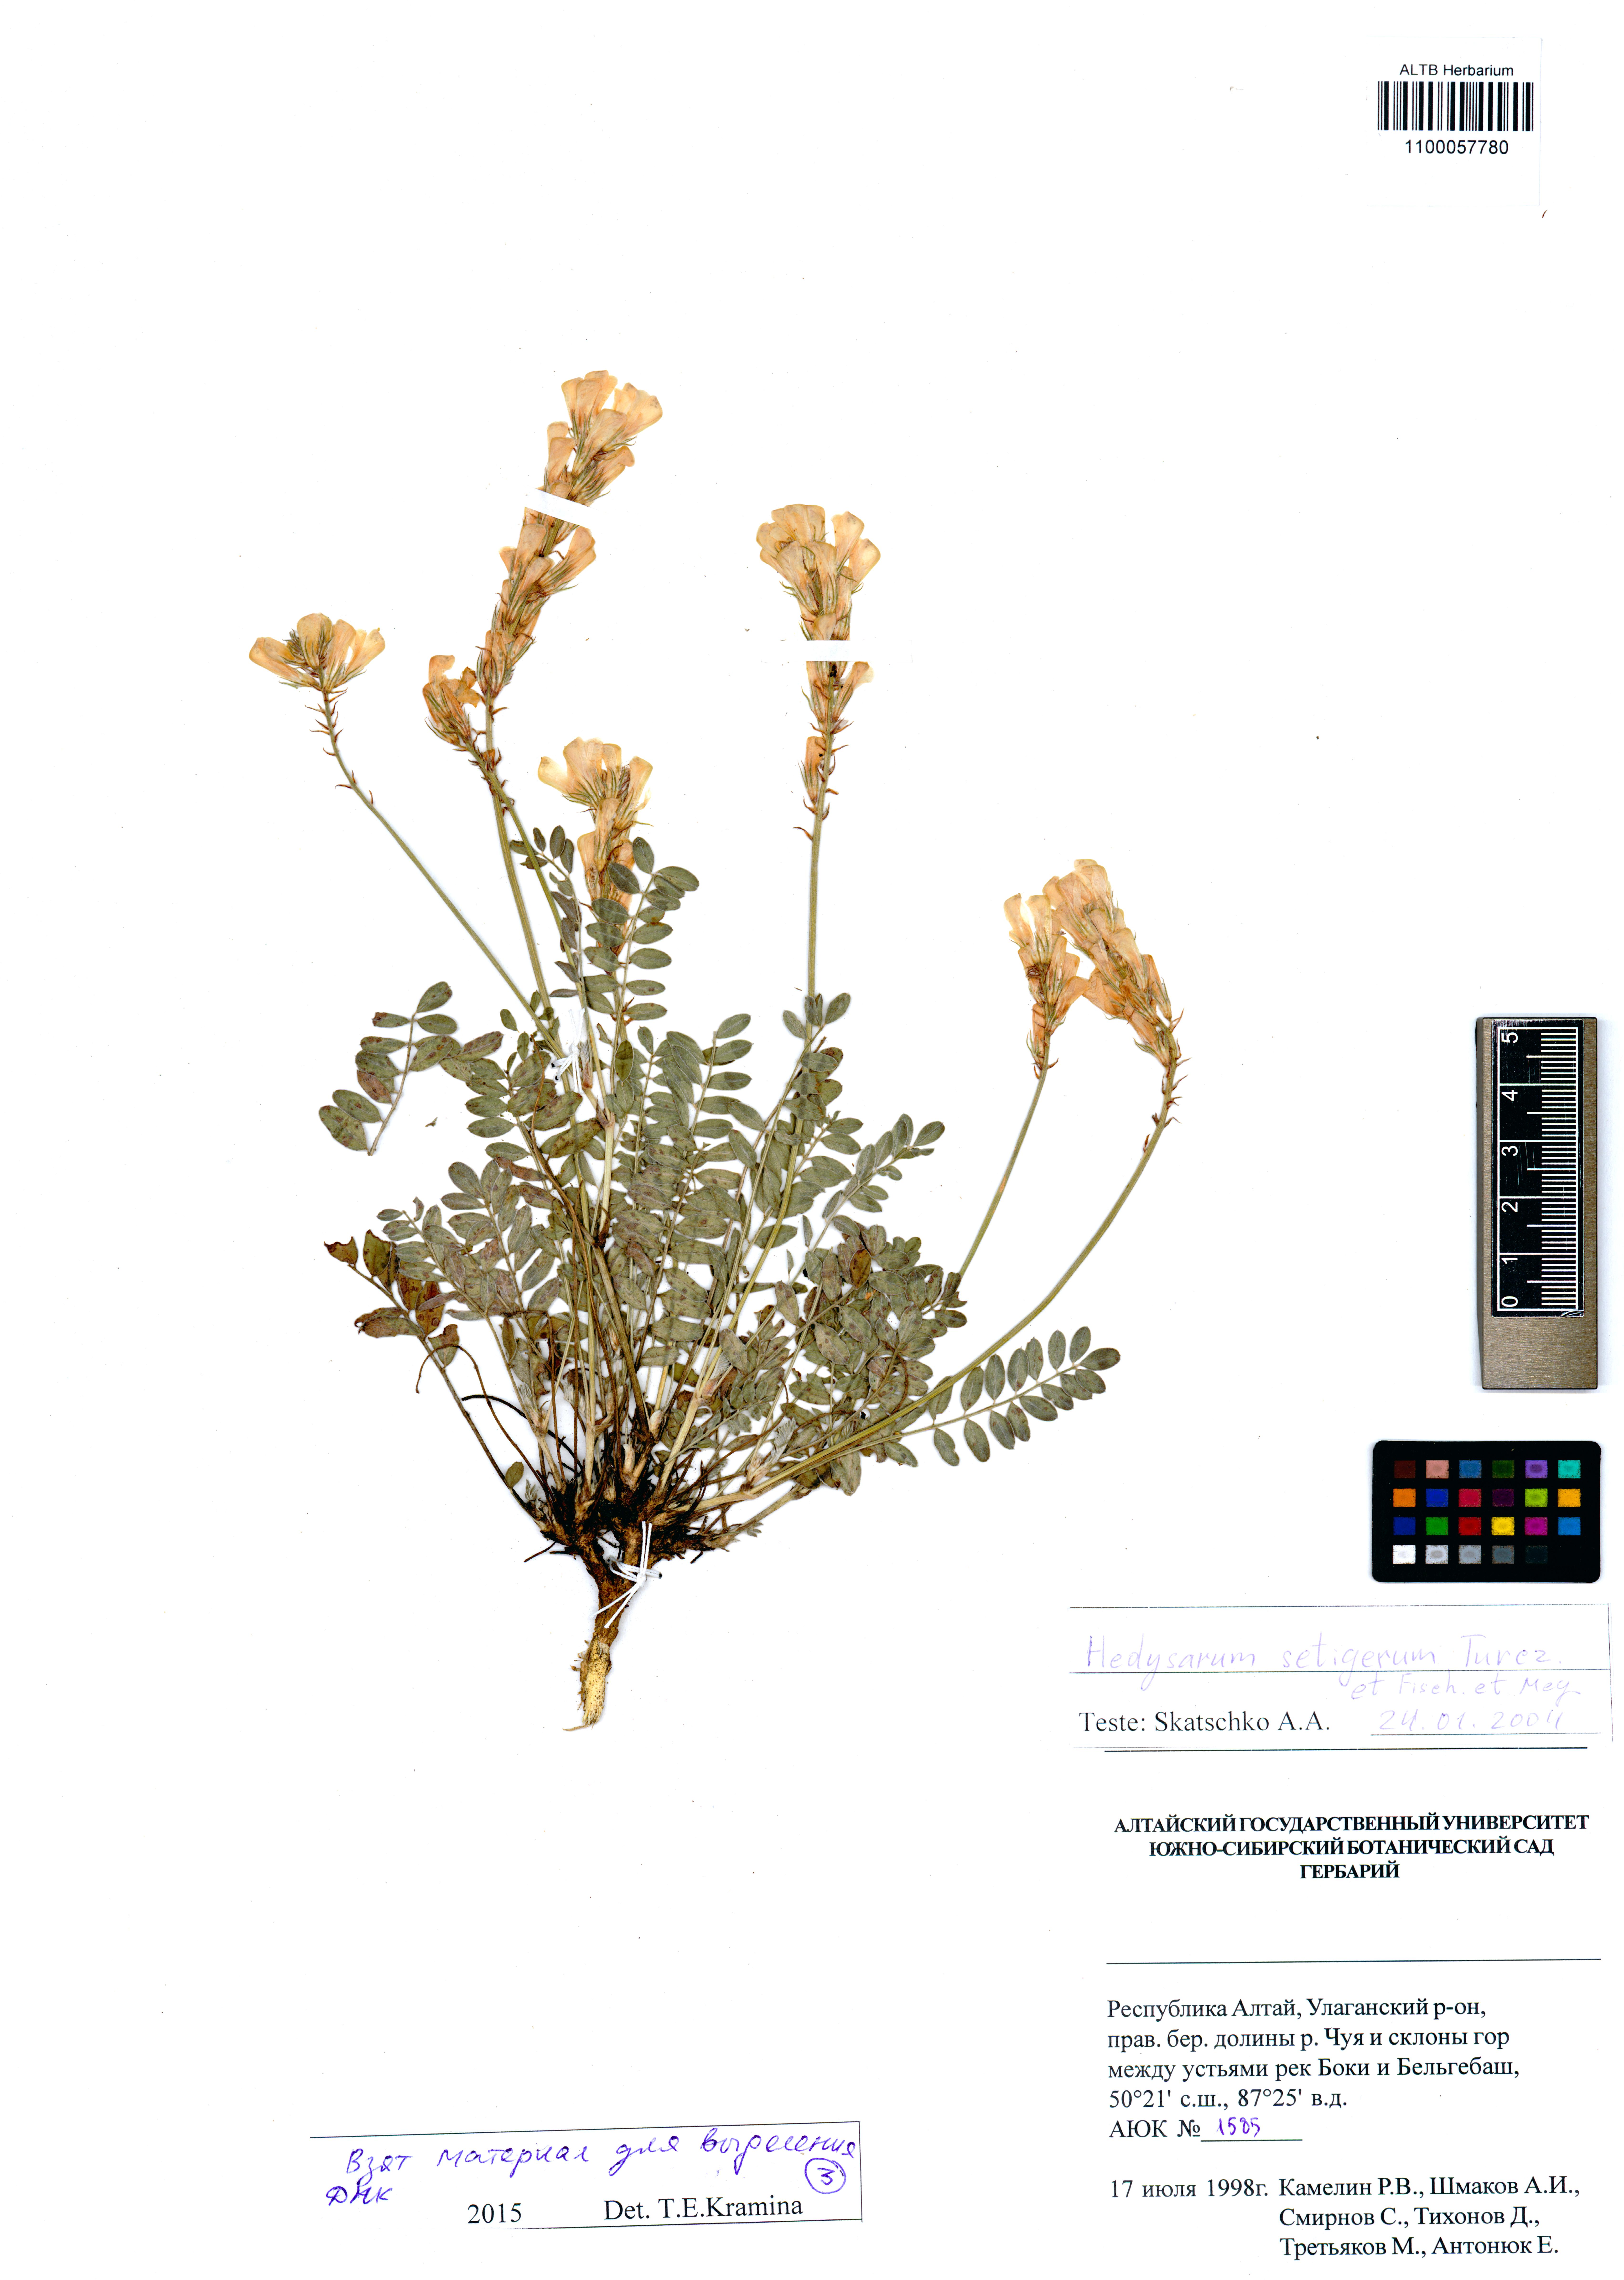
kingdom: Plantae
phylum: Tracheophyta
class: Magnoliopsida
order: Fabales
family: Fabaceae
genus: Hedysarum
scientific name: Hedysarum setigerum
